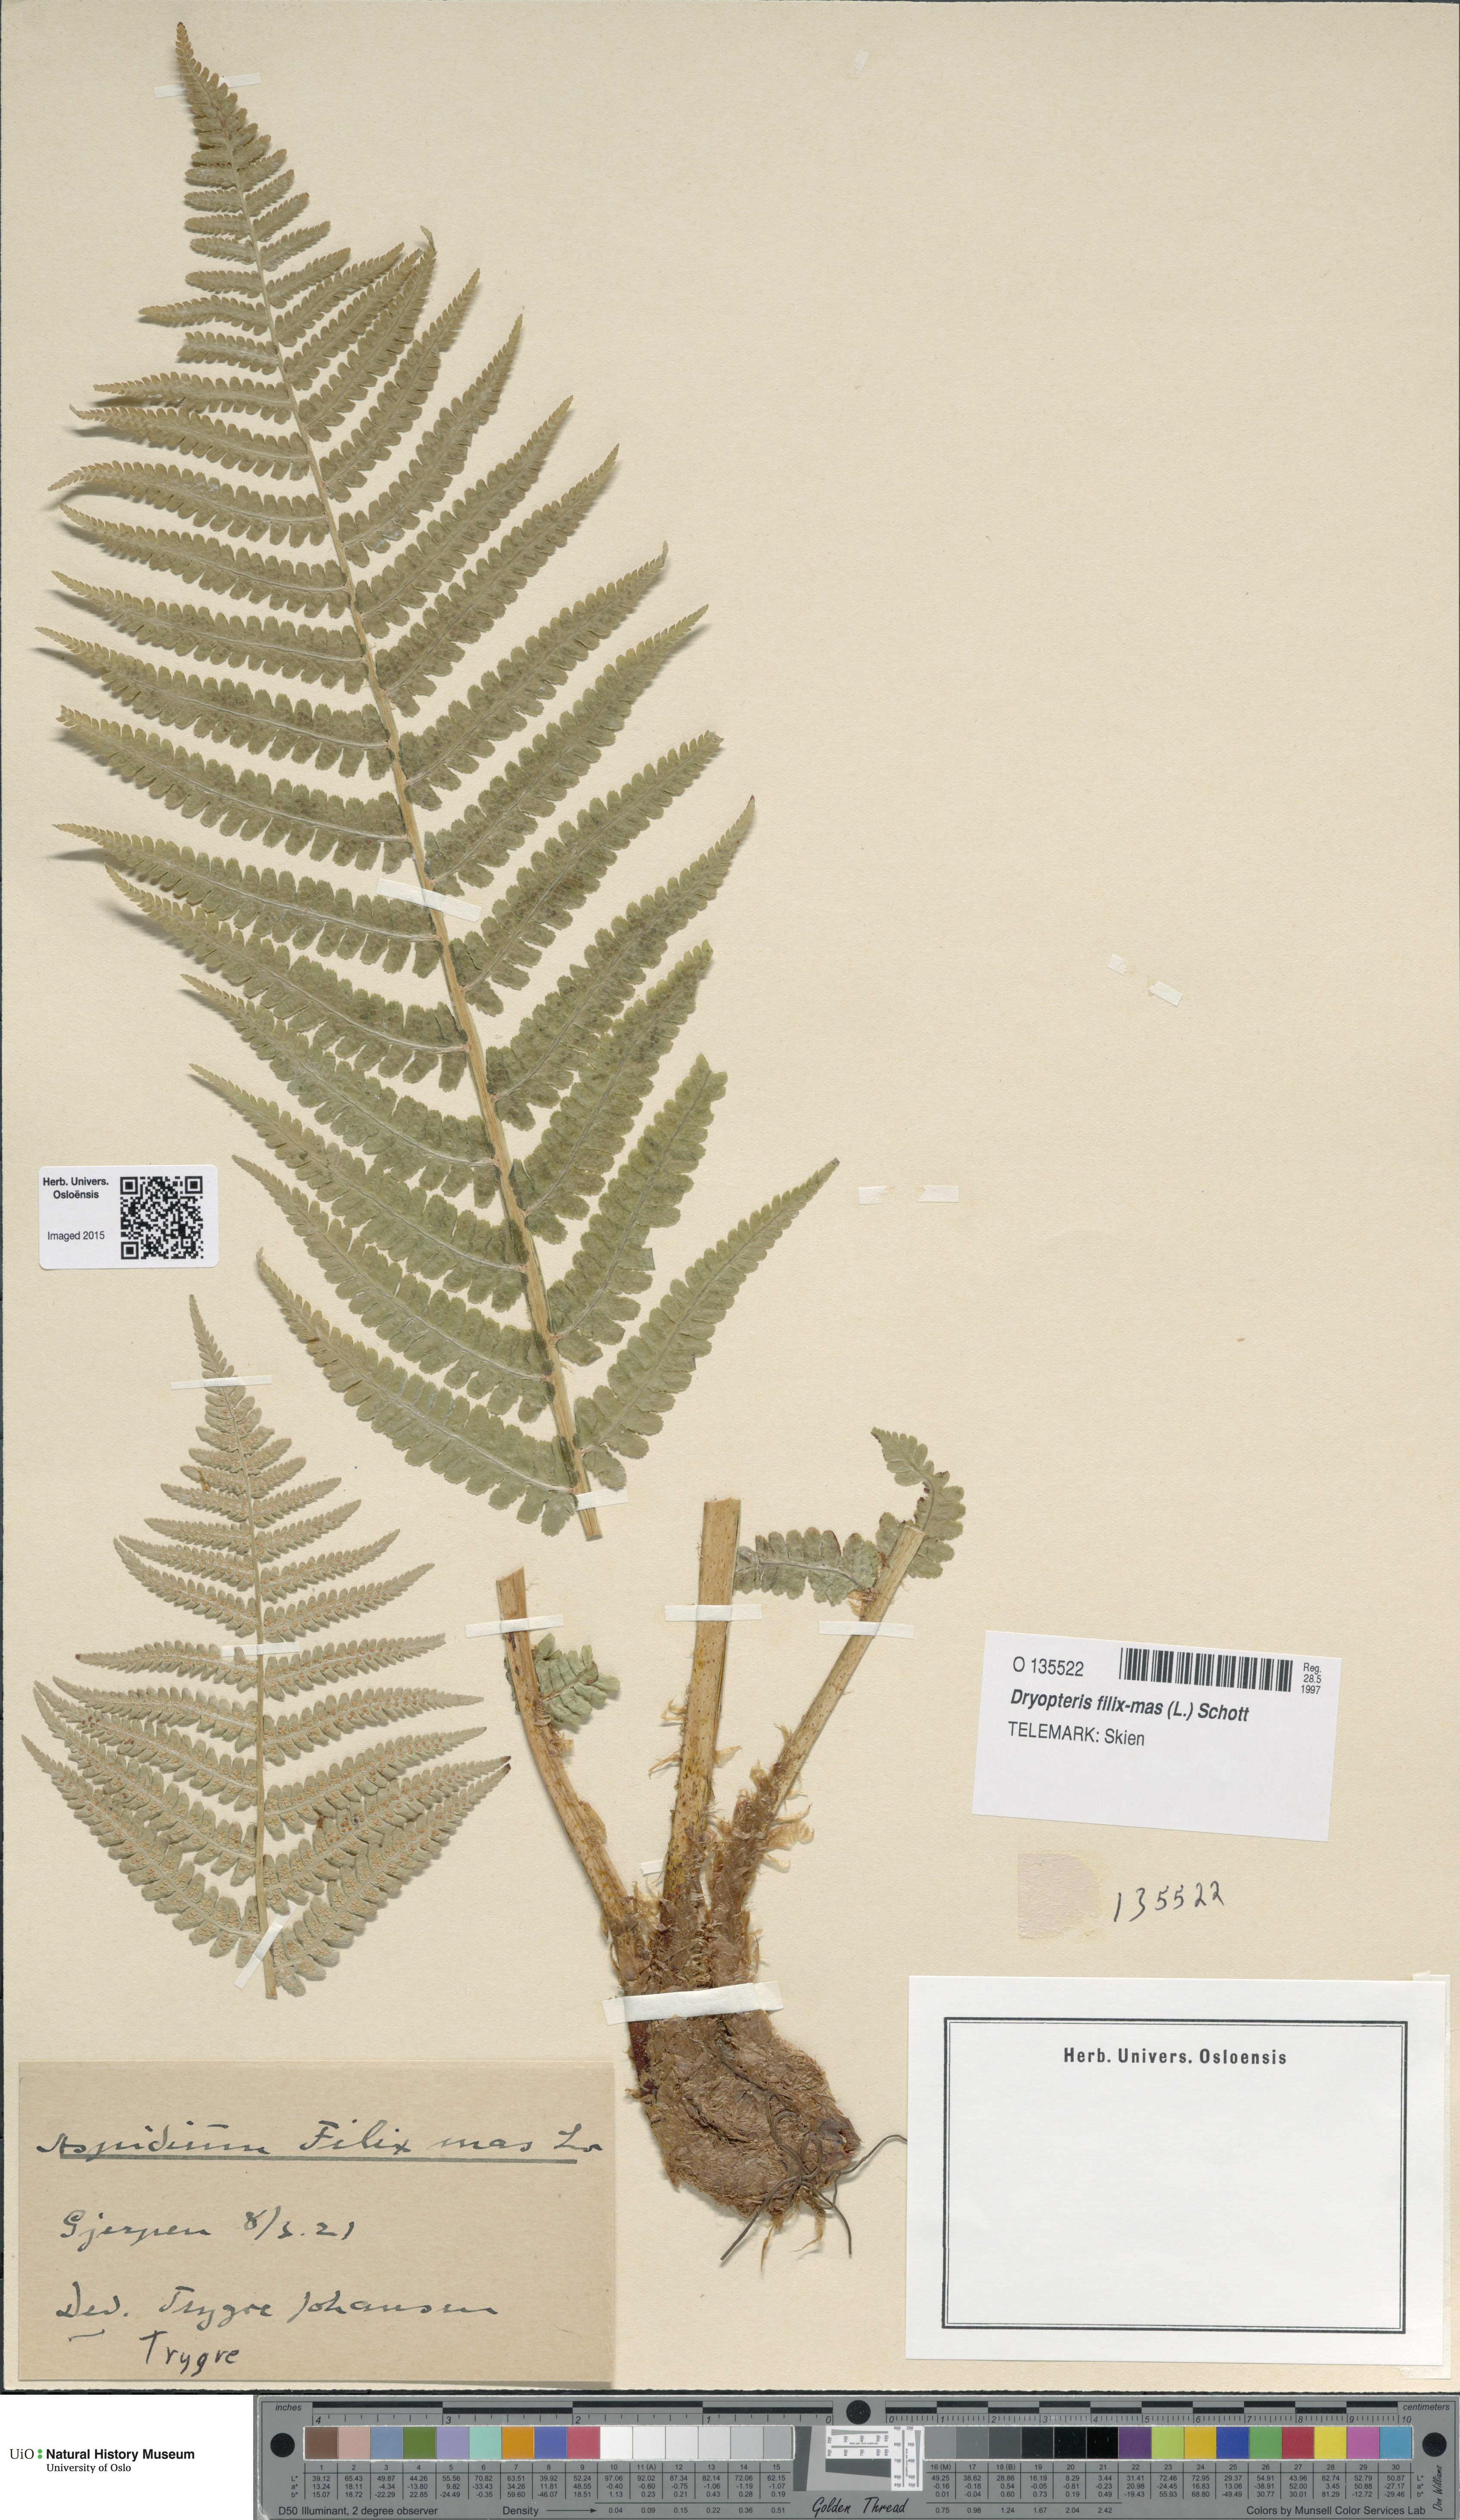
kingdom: Plantae
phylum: Tracheophyta
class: Polypodiopsida
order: Polypodiales
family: Dryopteridaceae
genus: Dryopteris
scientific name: Dryopteris filix-mas
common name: Male fern
